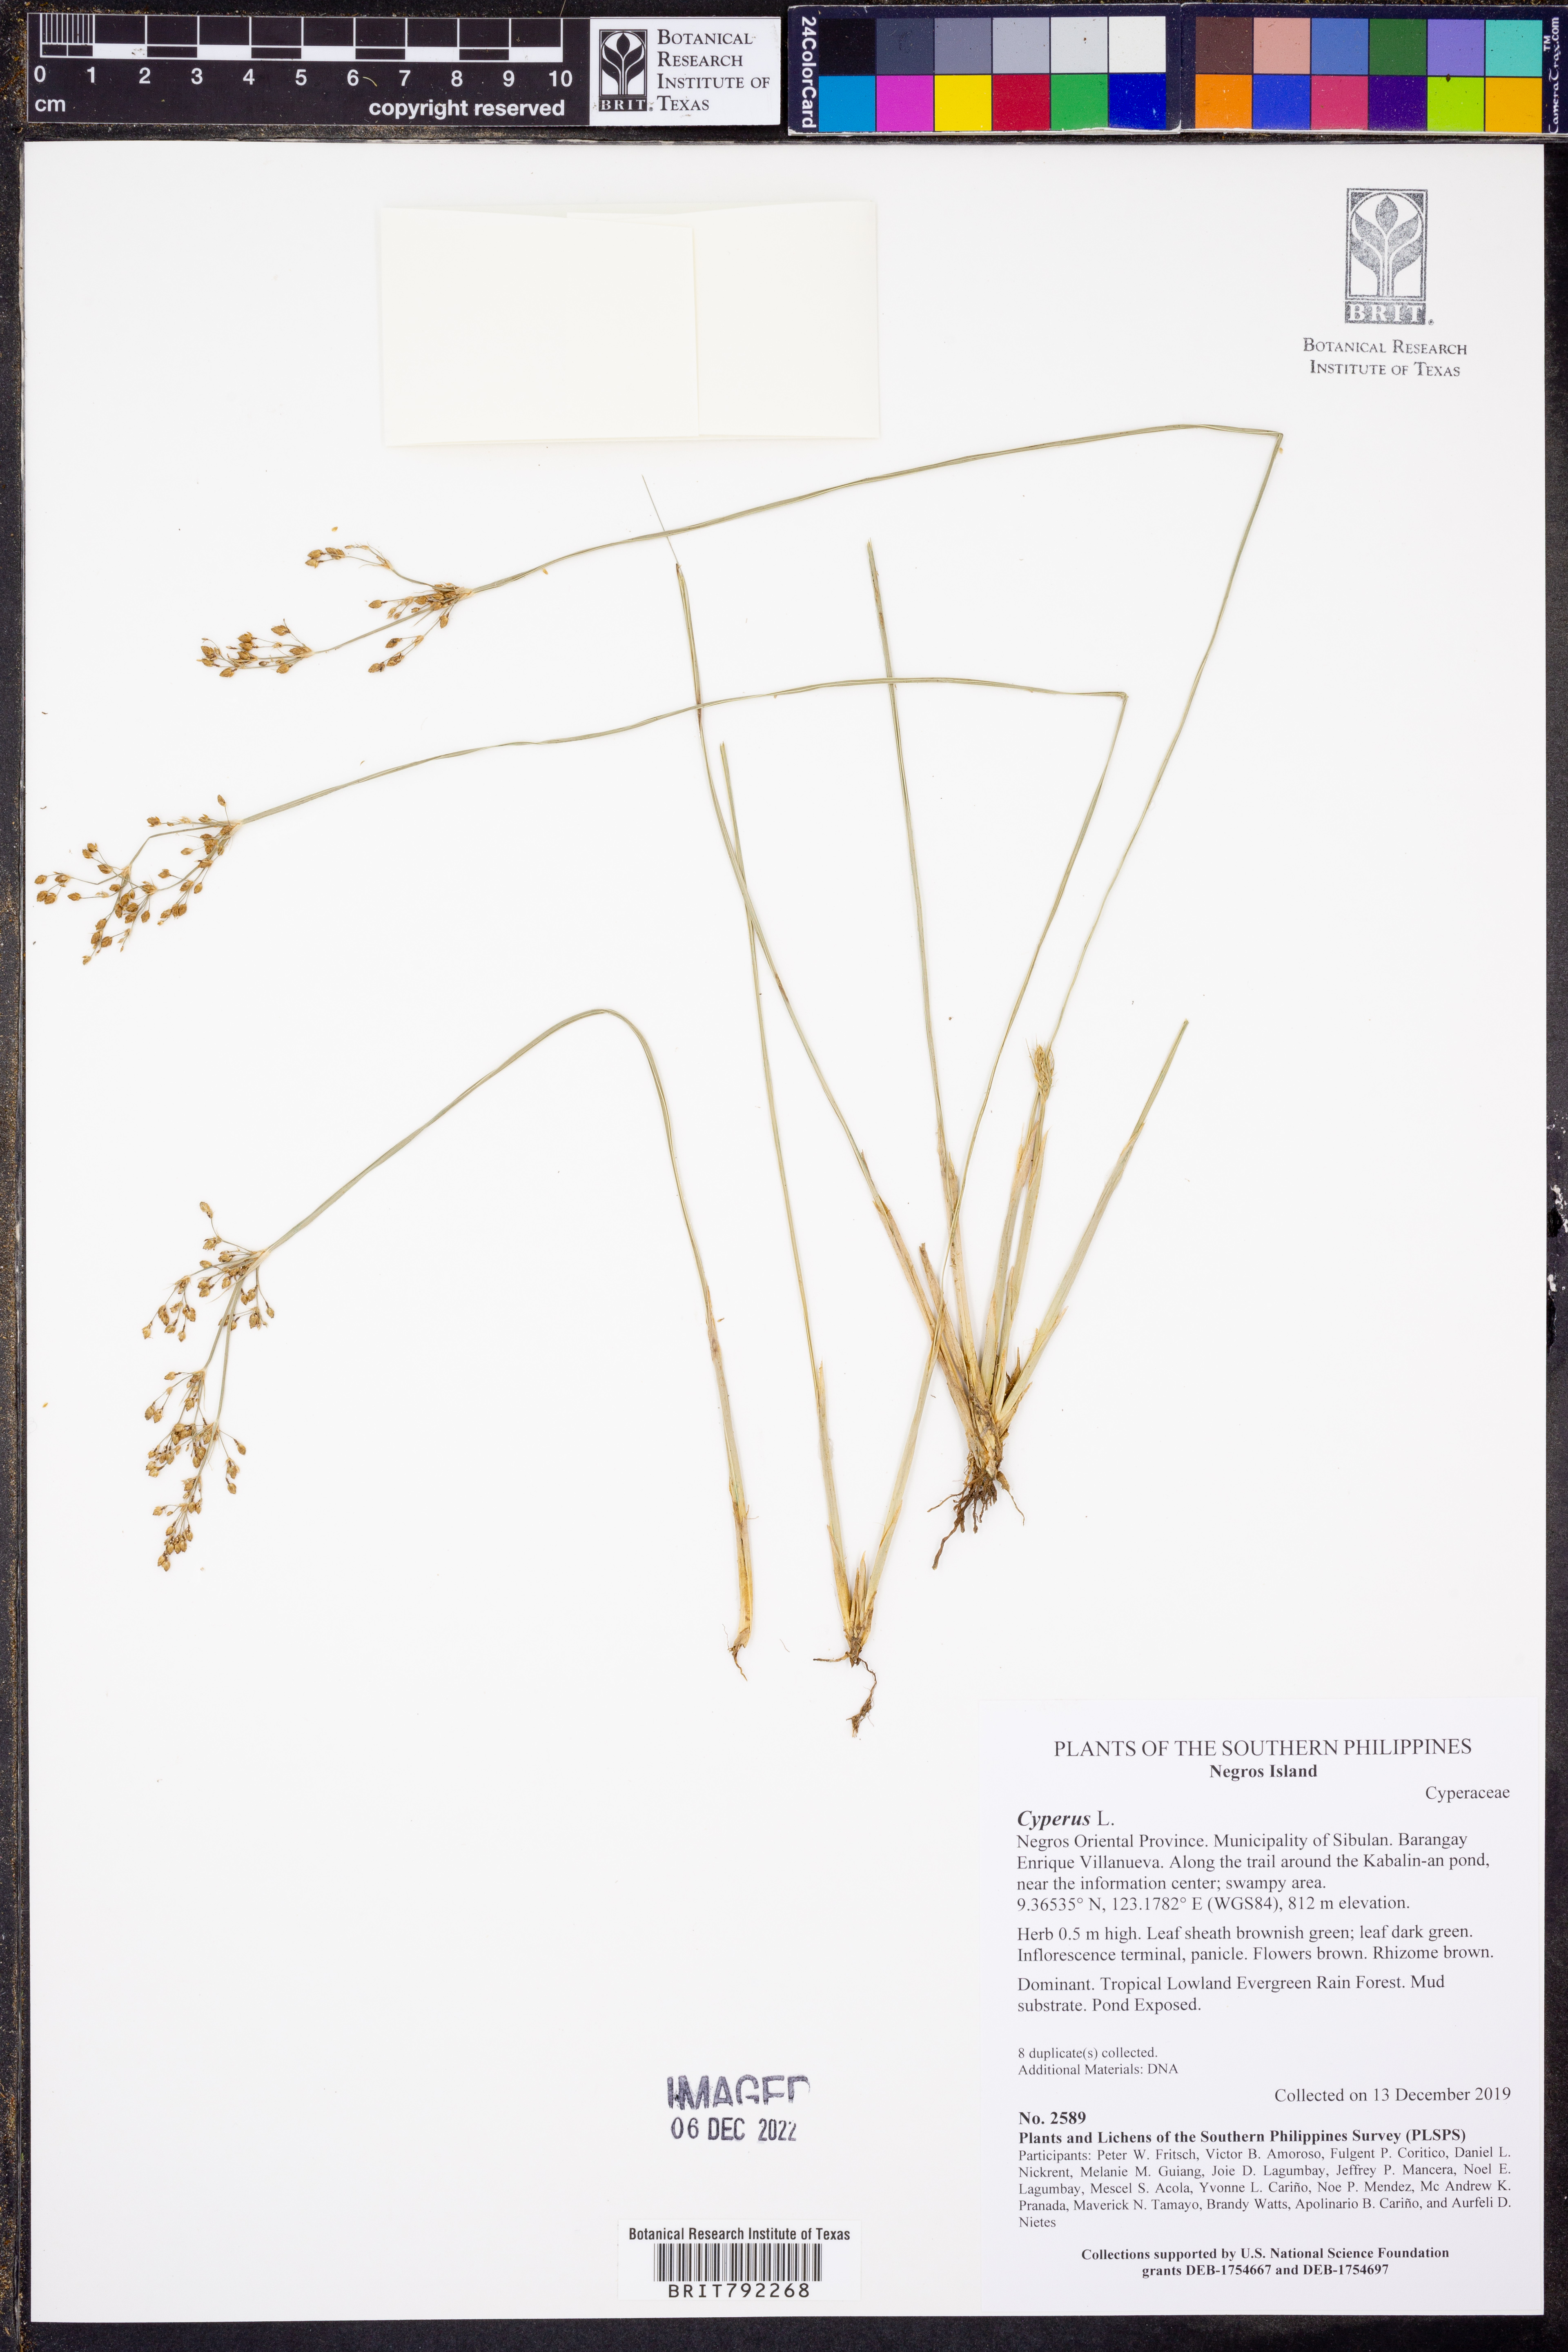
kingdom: Plantae
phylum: Tracheophyta
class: Liliopsida
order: Poales
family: Cyperaceae
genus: Cyperus
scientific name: Cyperus
